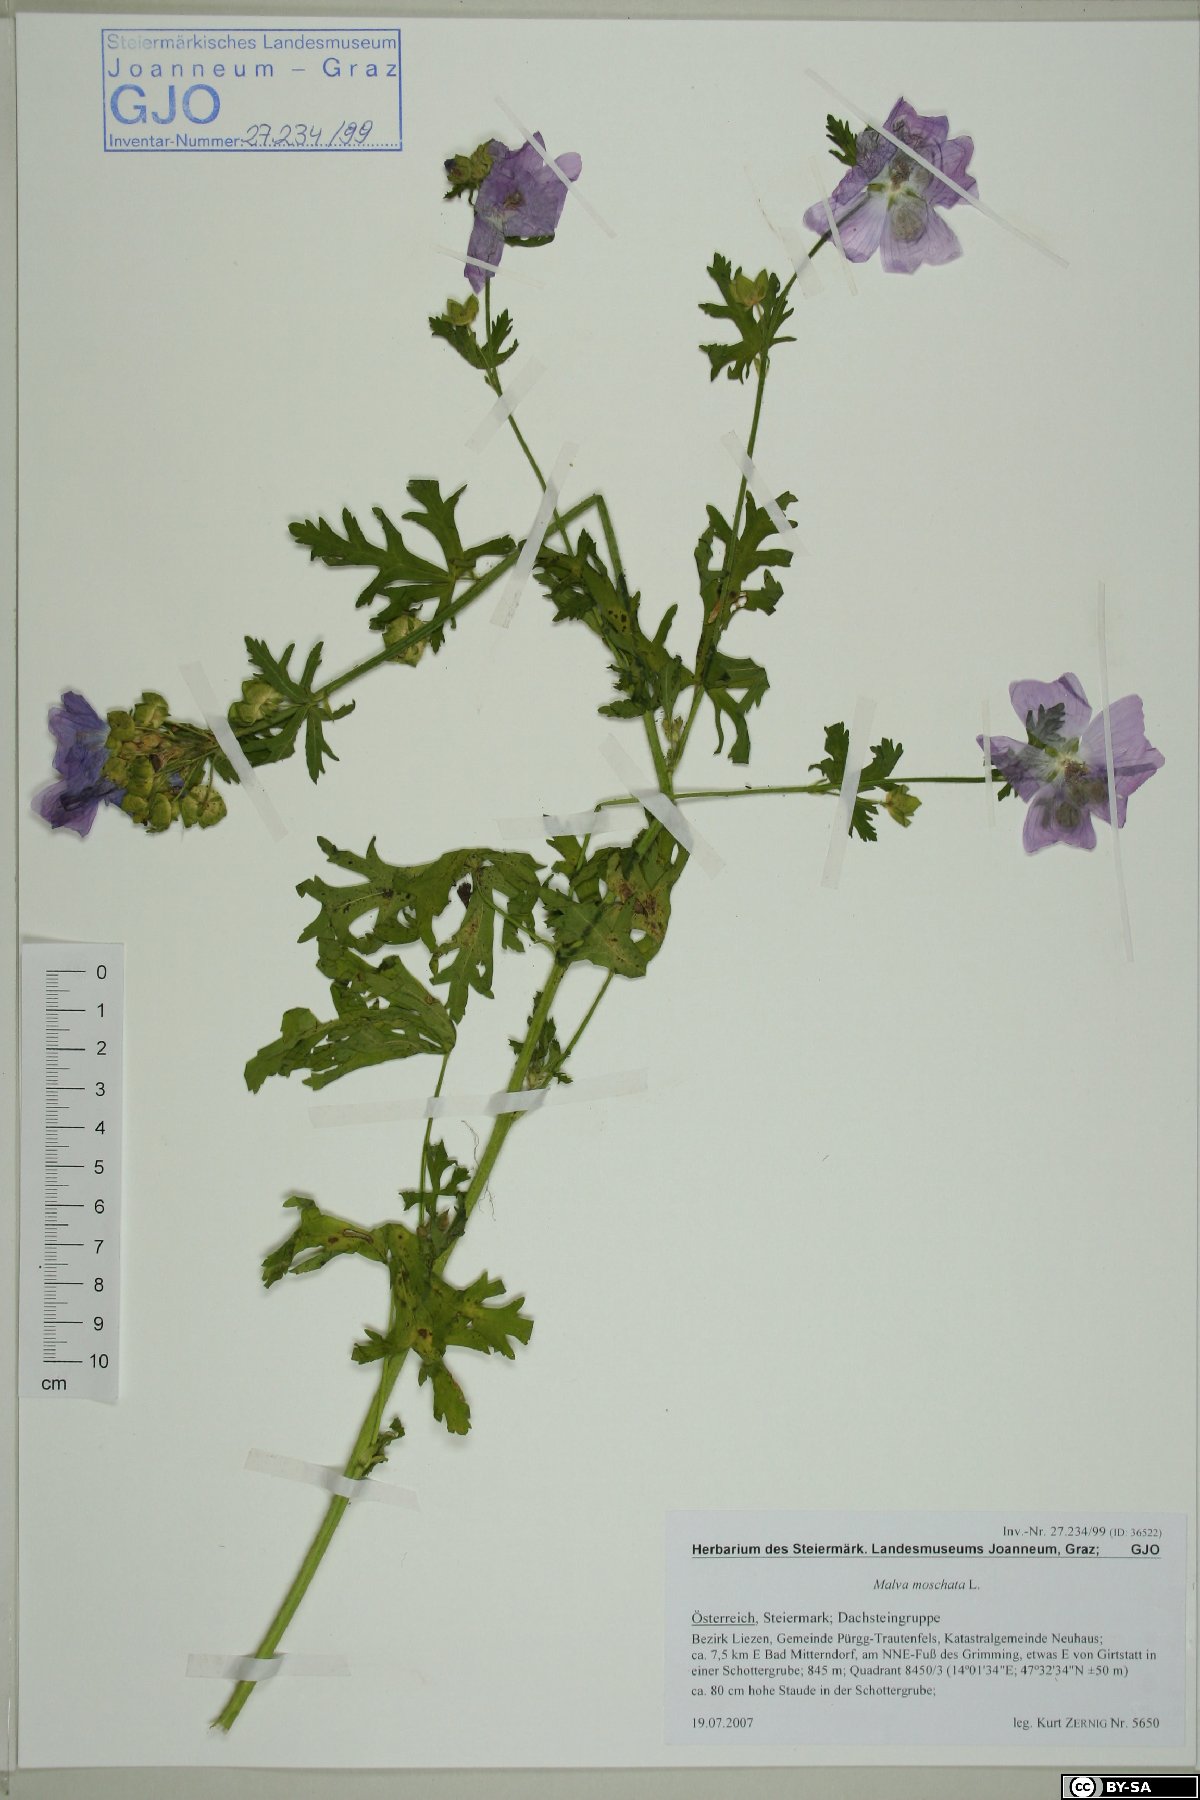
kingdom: Plantae
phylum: Tracheophyta
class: Magnoliopsida
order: Malvales
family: Malvaceae
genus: Malva
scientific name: Malva moschata
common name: Musk mallow
